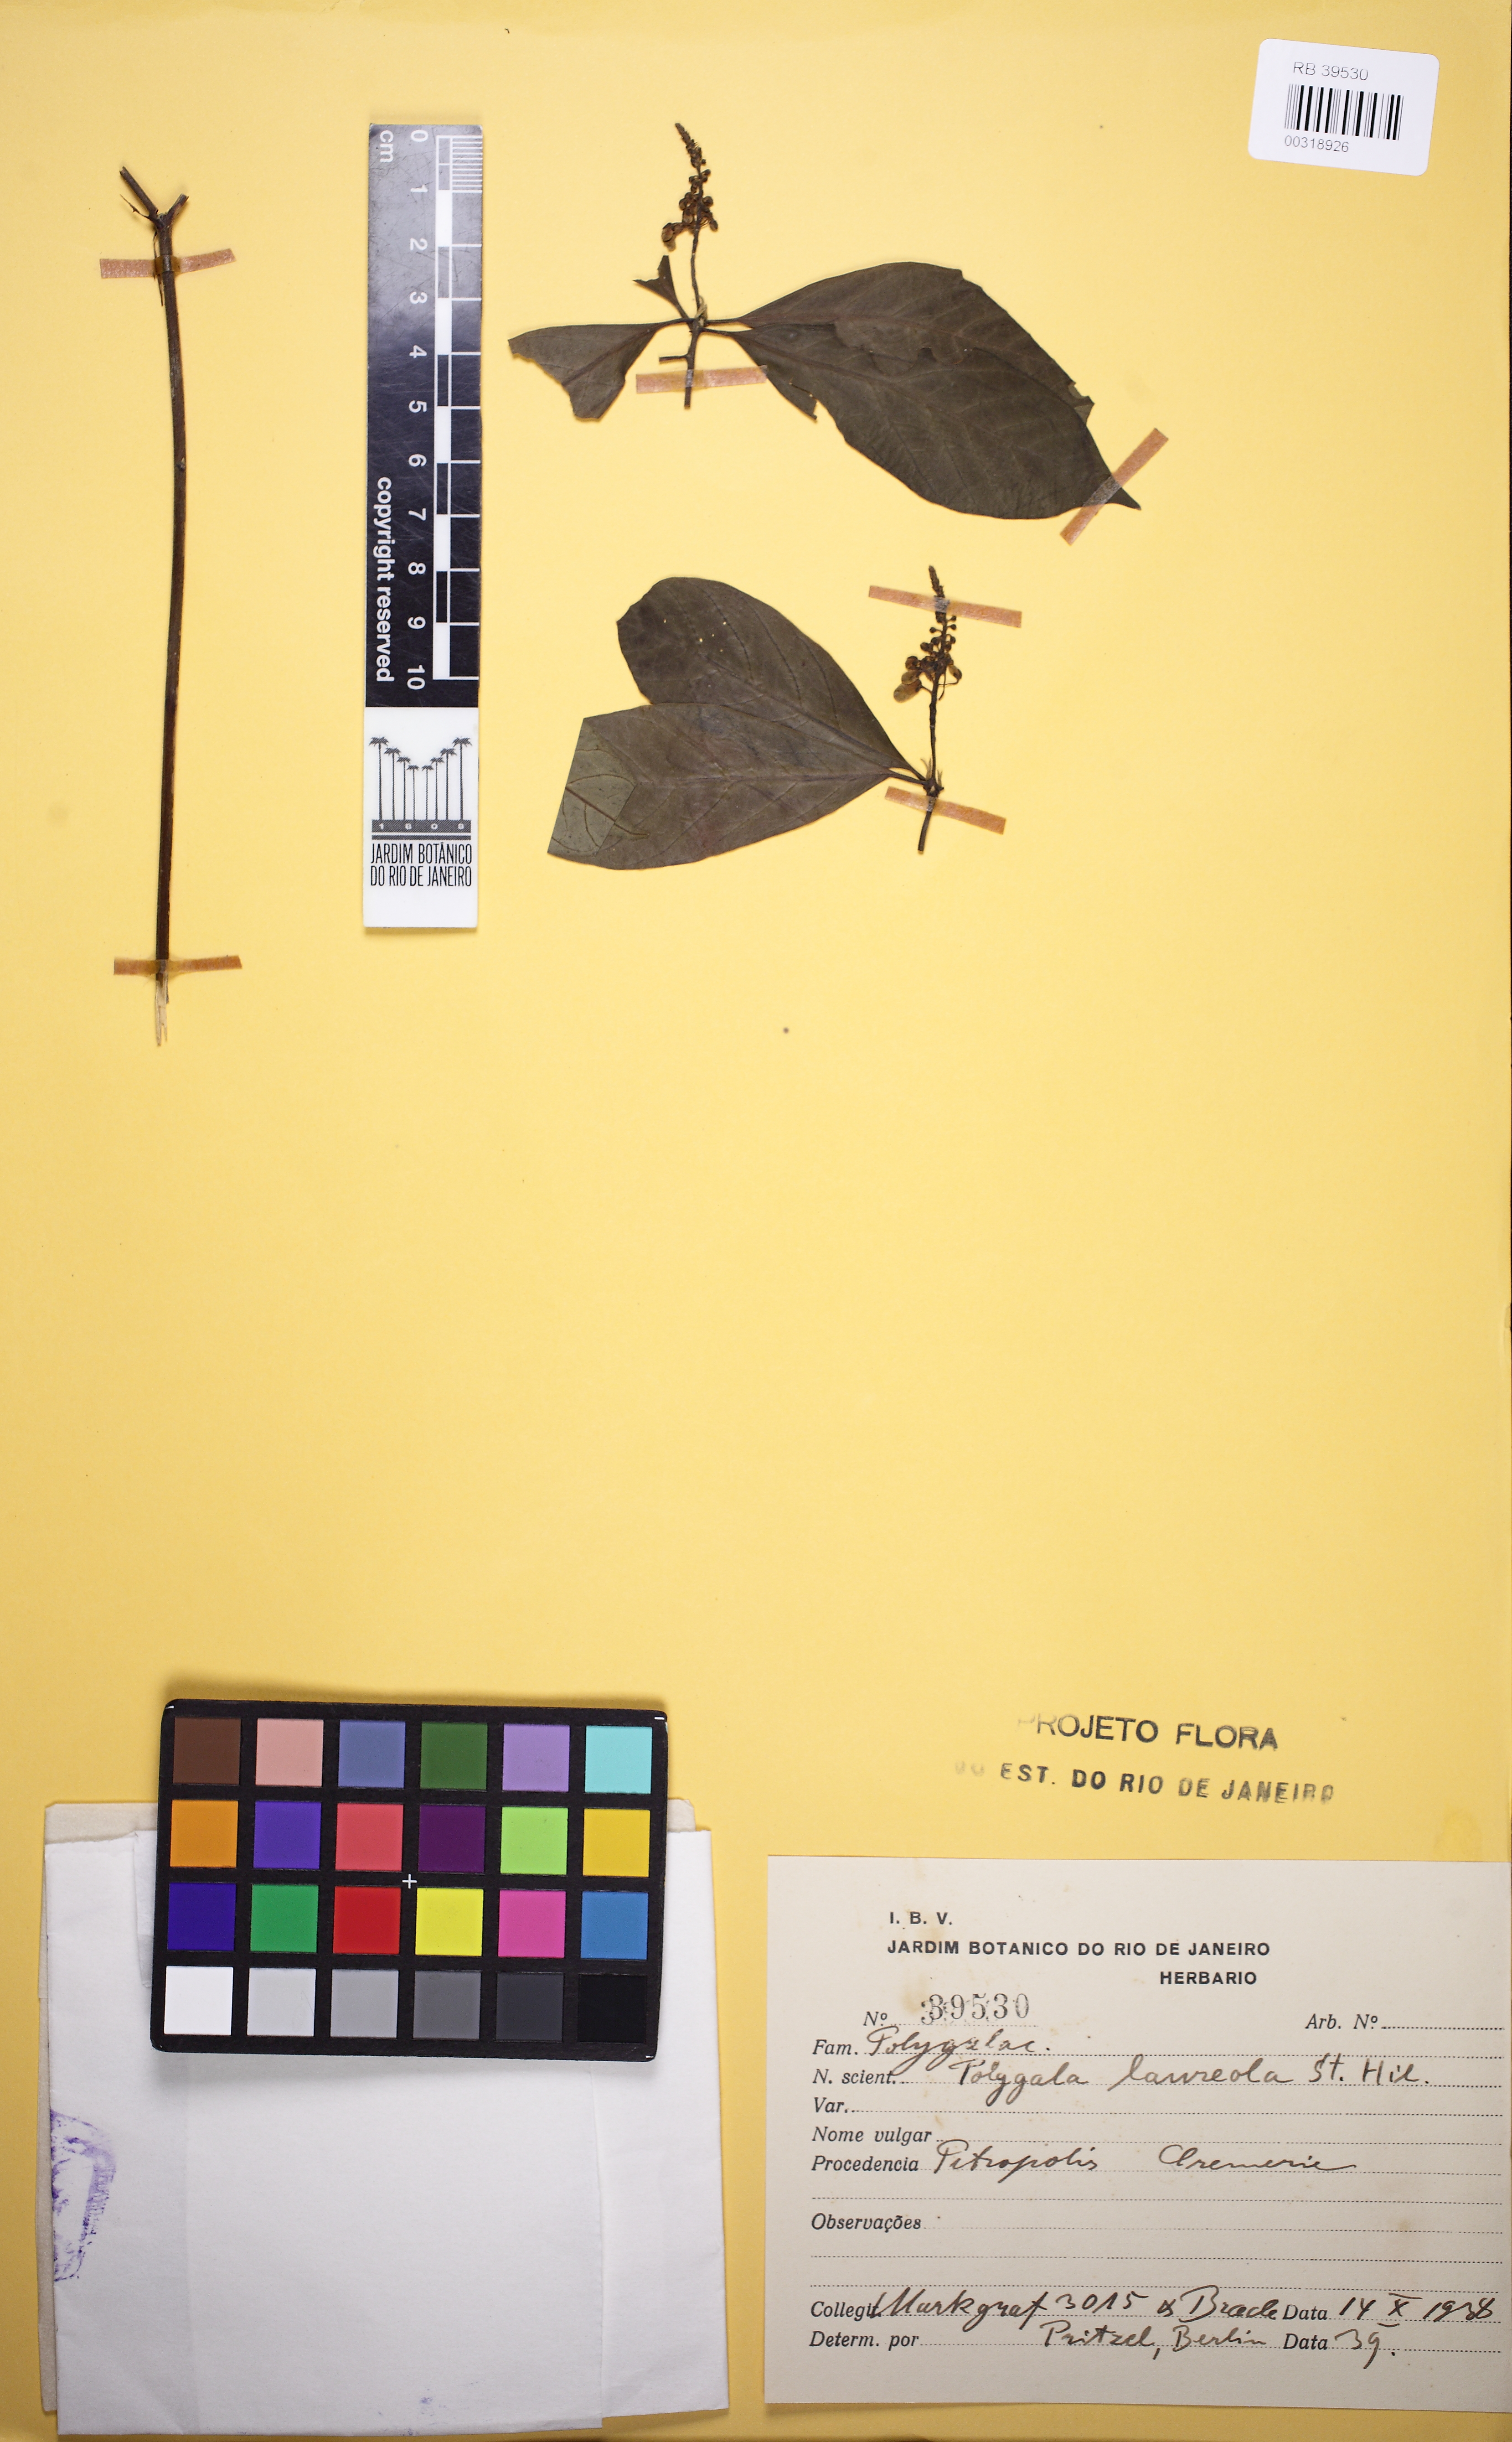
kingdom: Plantae
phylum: Tracheophyta
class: Magnoliopsida
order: Fabales
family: Polygalaceae
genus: Caamembeca
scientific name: Caamembeca salicifolia
